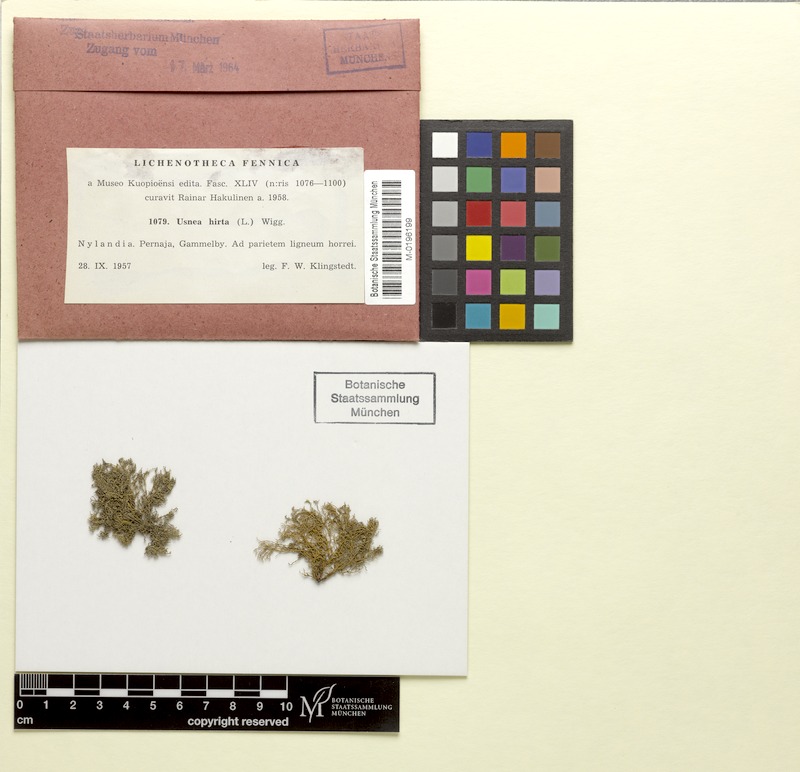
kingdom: Fungi
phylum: Ascomycota
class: Lecanoromycetes
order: Lecanorales
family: Parmeliaceae
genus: Usnea
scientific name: Usnea hirta
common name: Bristly beard lichen
